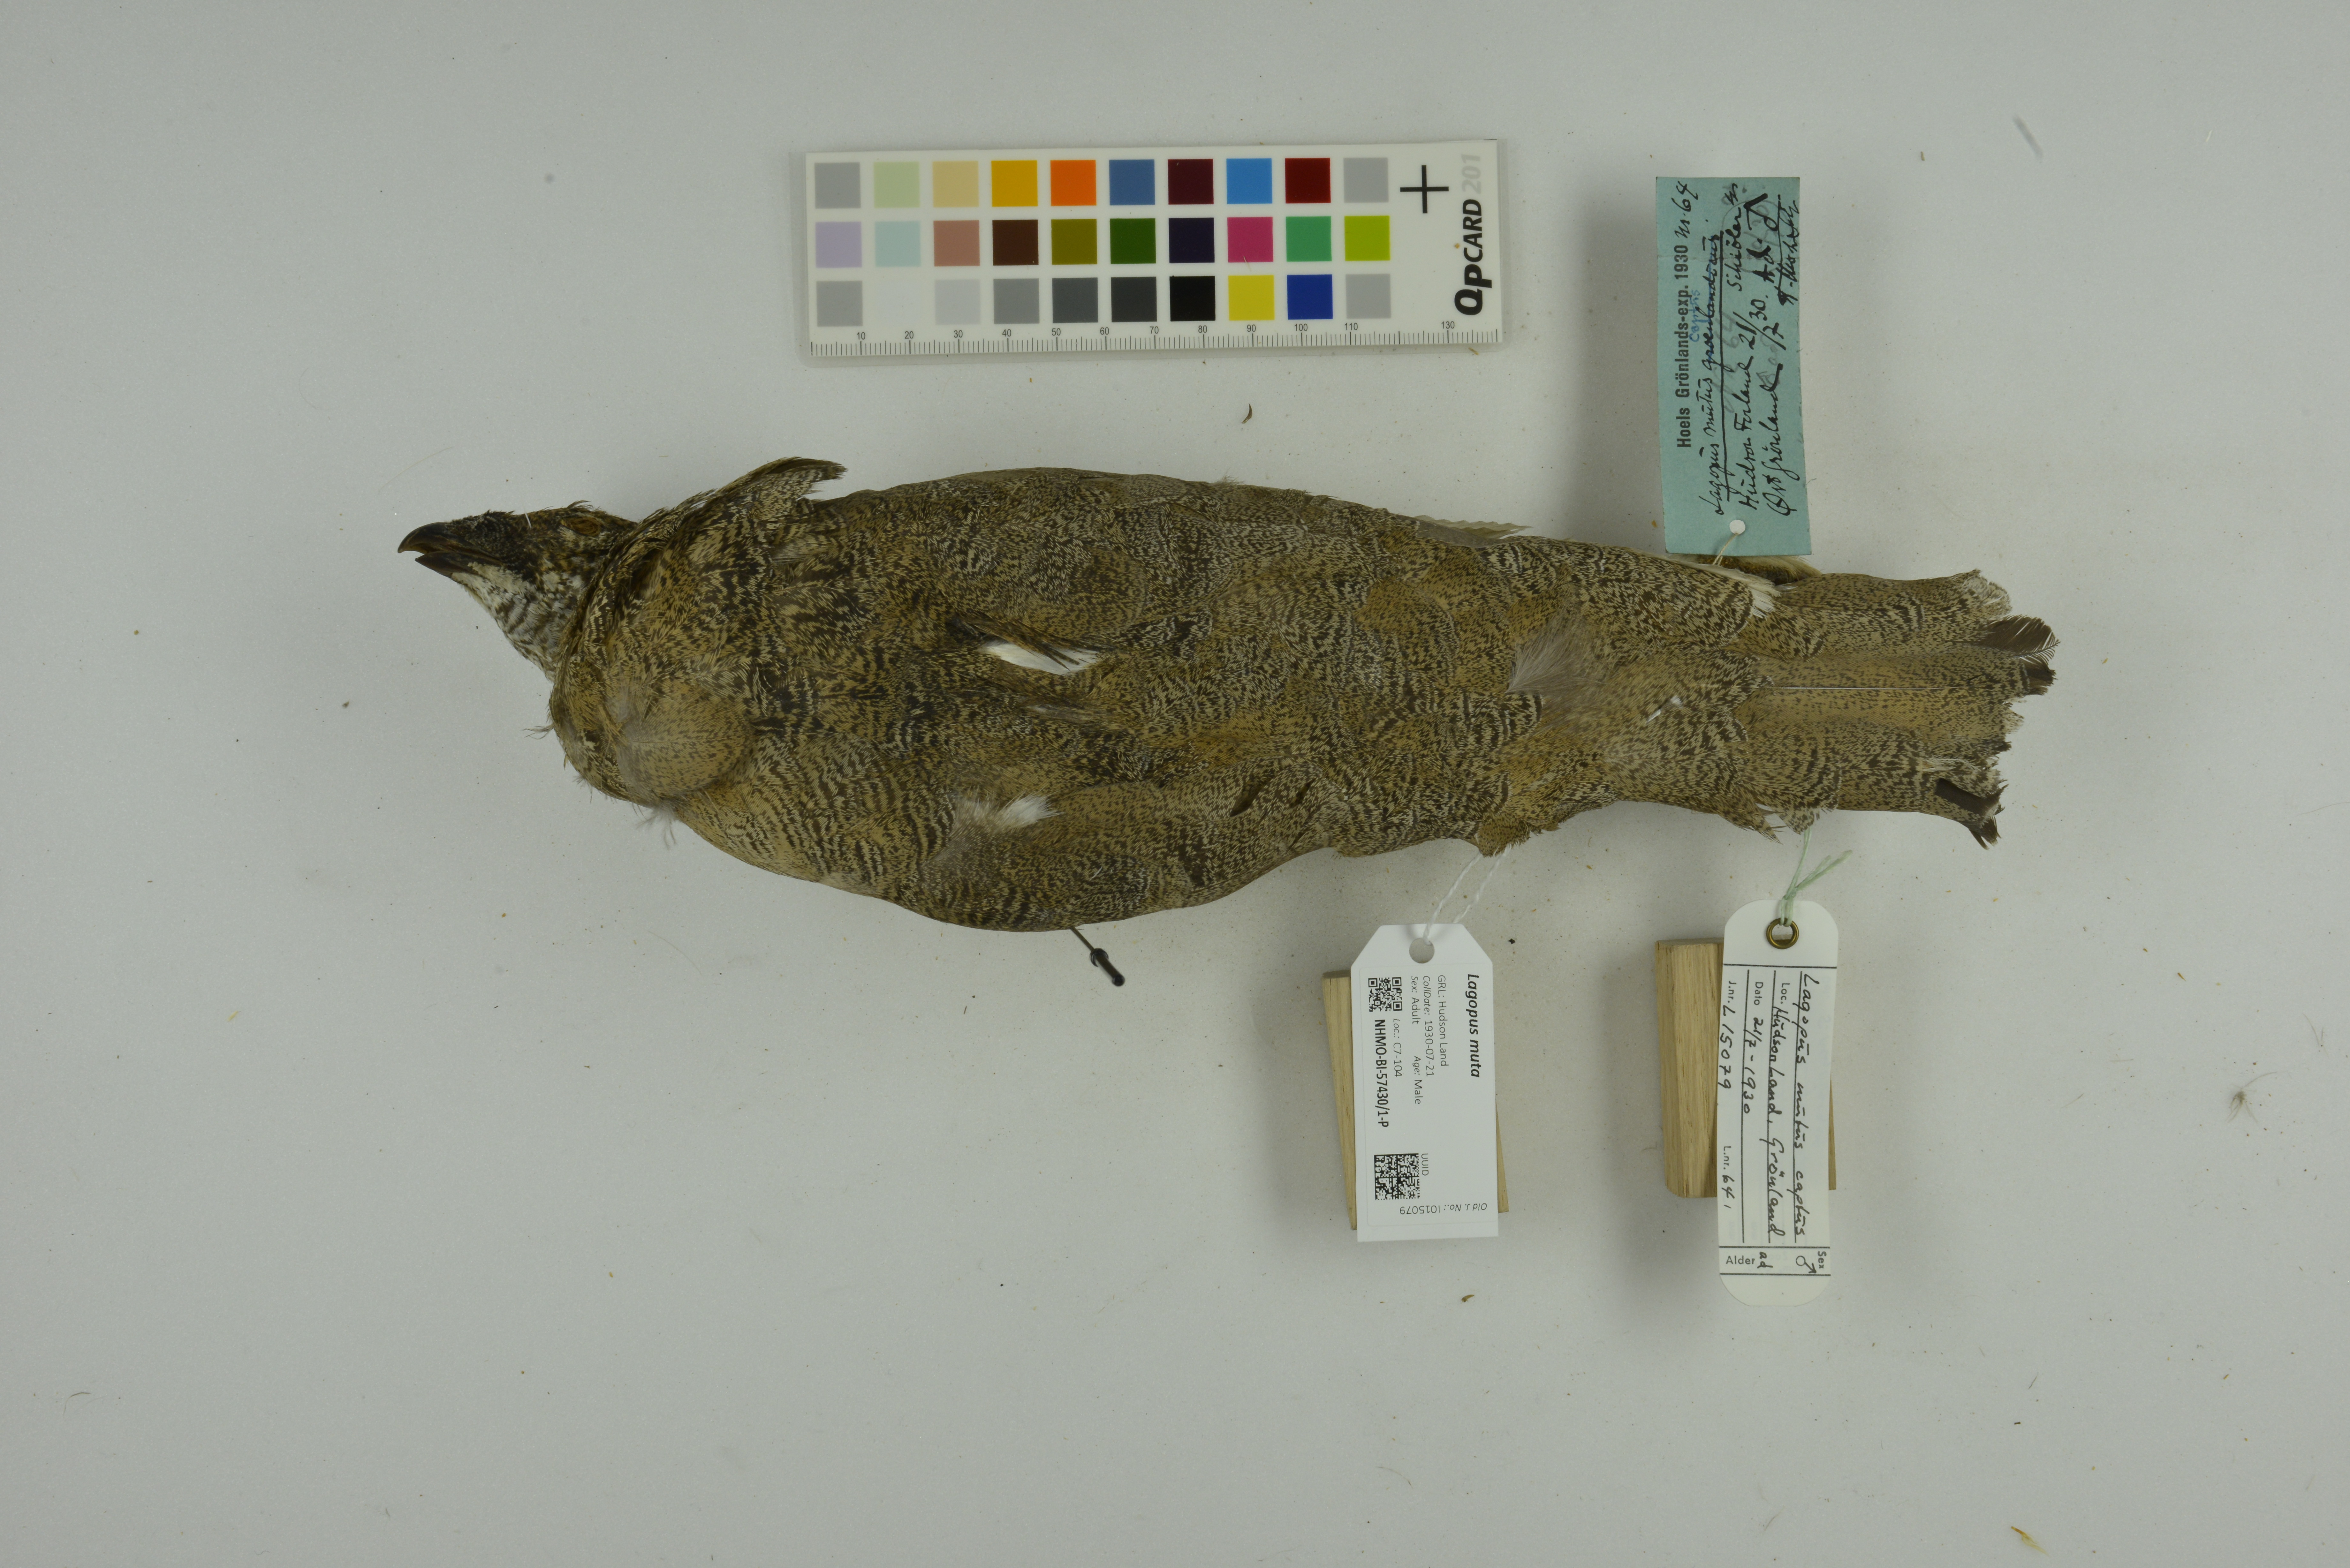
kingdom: Animalia
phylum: Chordata
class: Aves
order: Galliformes
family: Phasianidae
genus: Lagopus
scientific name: Lagopus muta
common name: Rock ptarmigan
